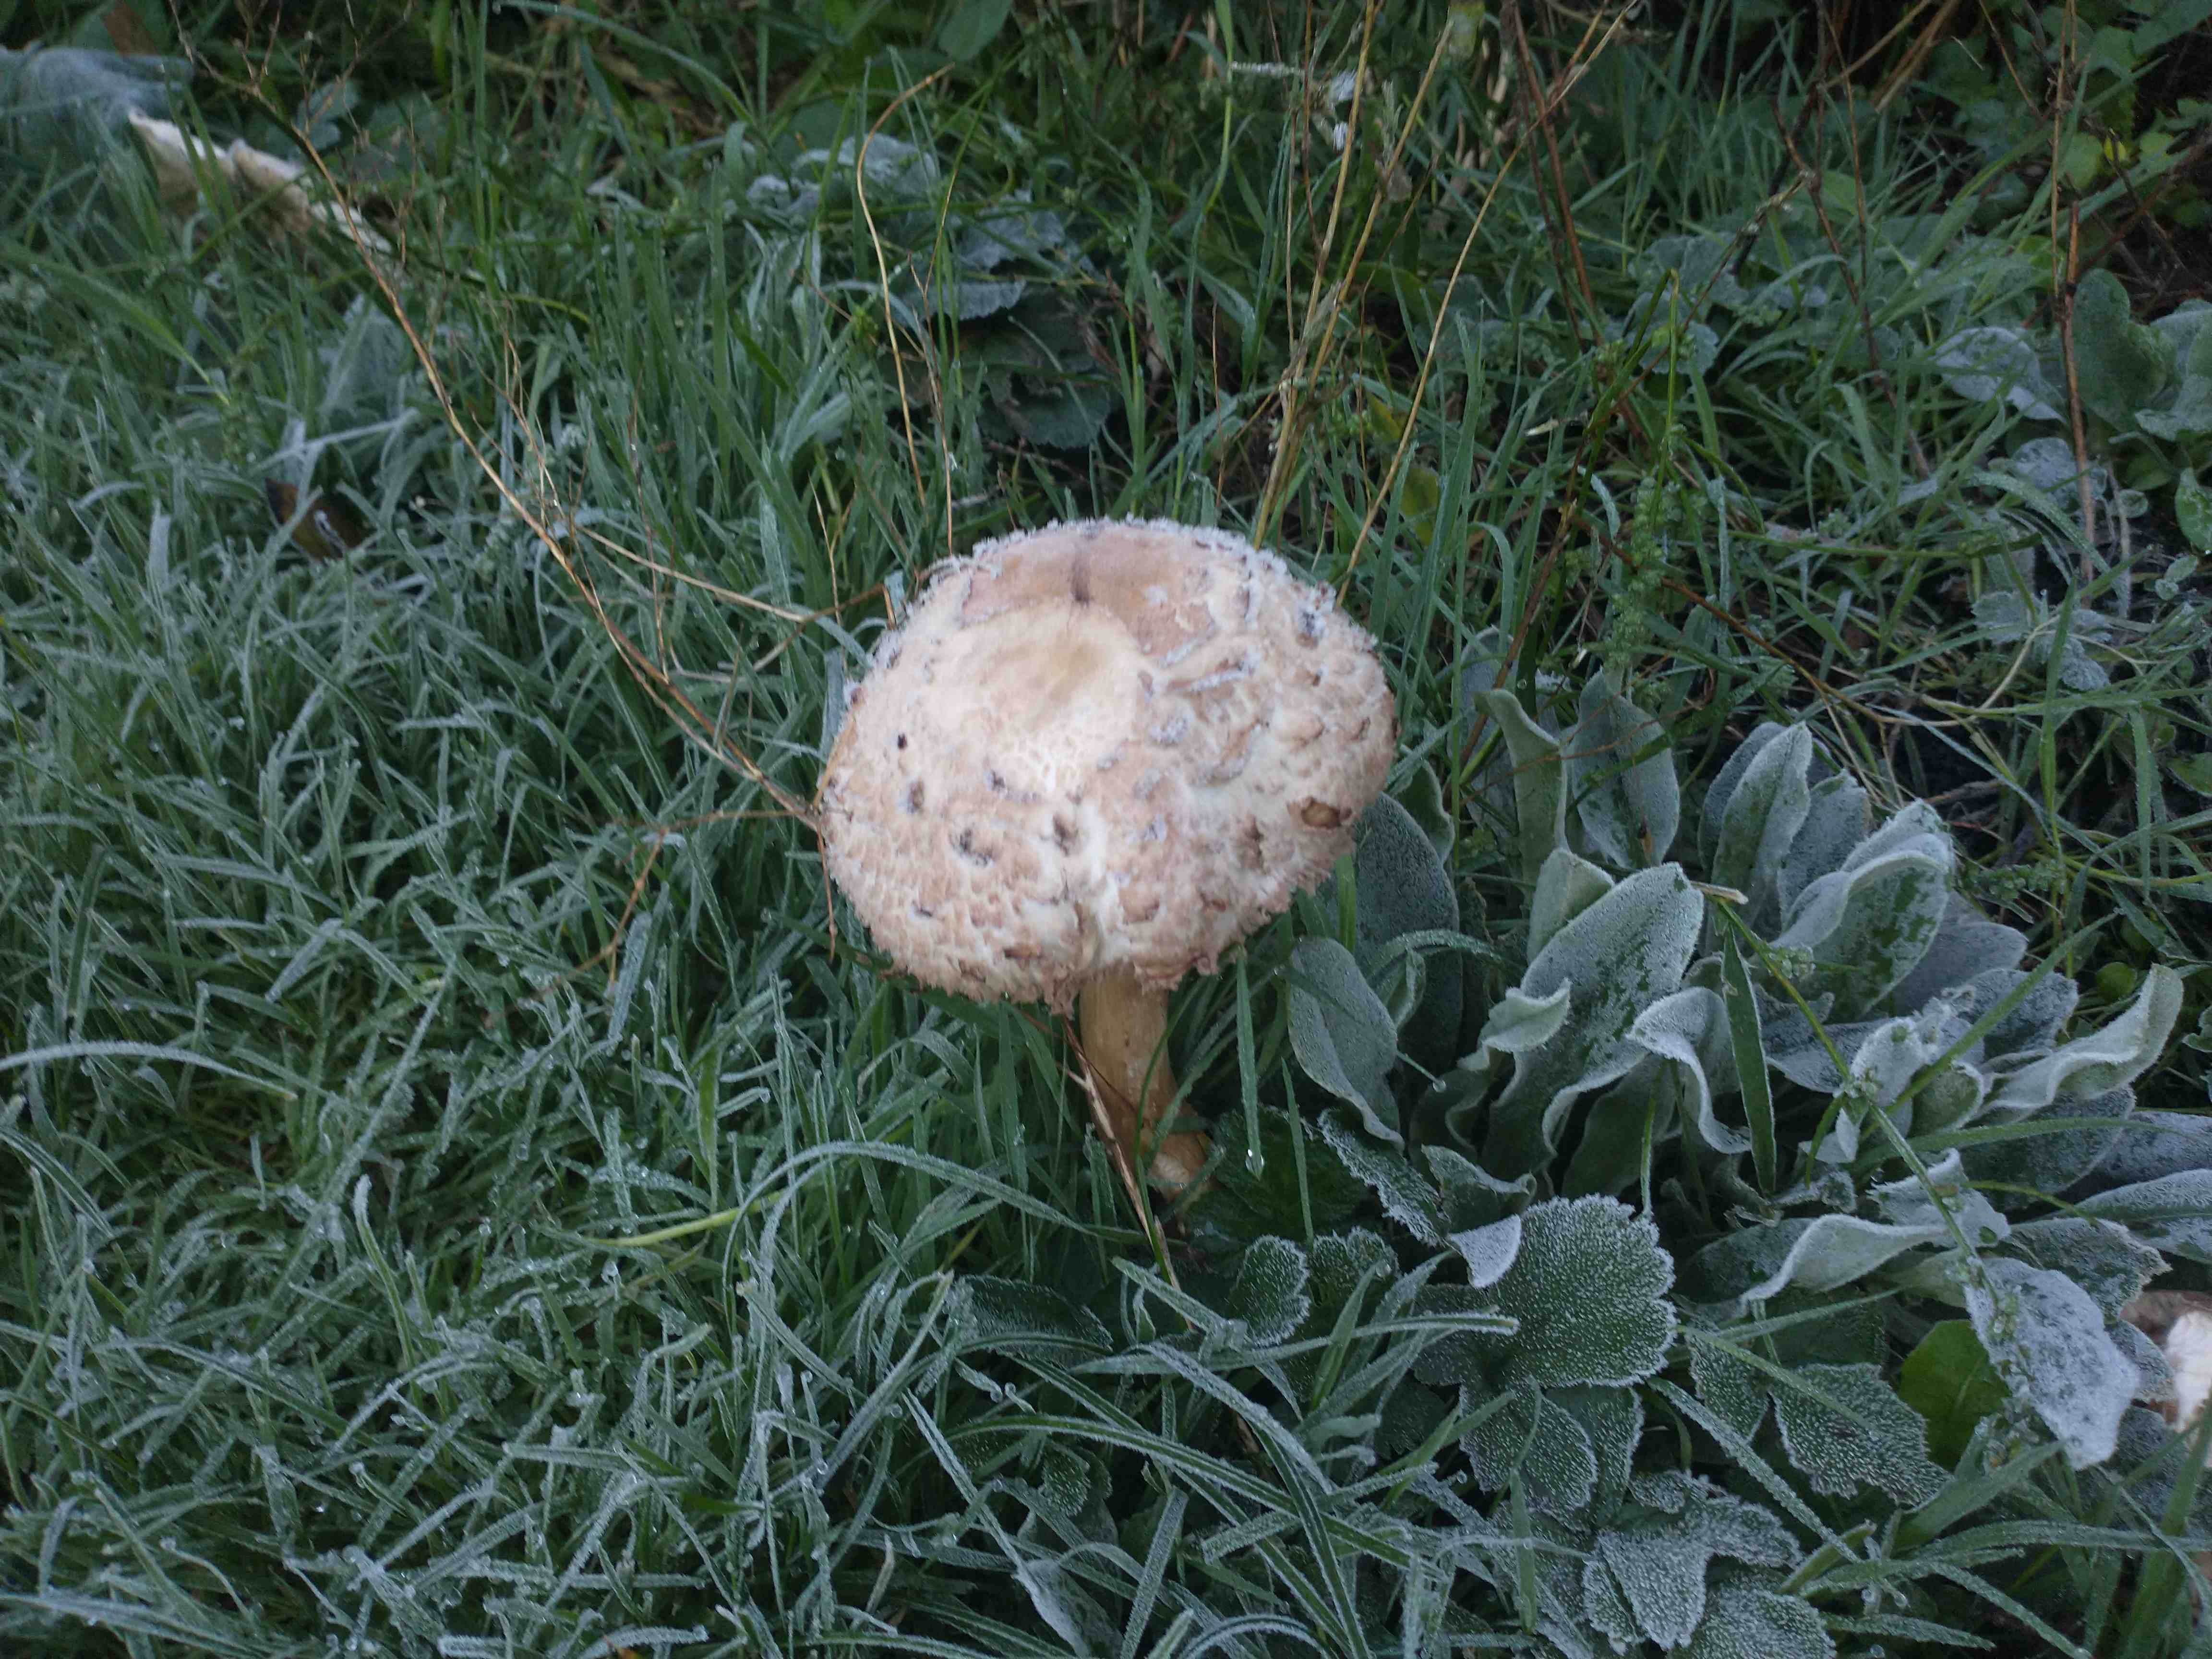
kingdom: Fungi
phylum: Basidiomycota
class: Agaricomycetes
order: Agaricales
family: Agaricaceae
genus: Chlorophyllum
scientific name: Chlorophyllum olivieri
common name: almindelig rabarberhat
